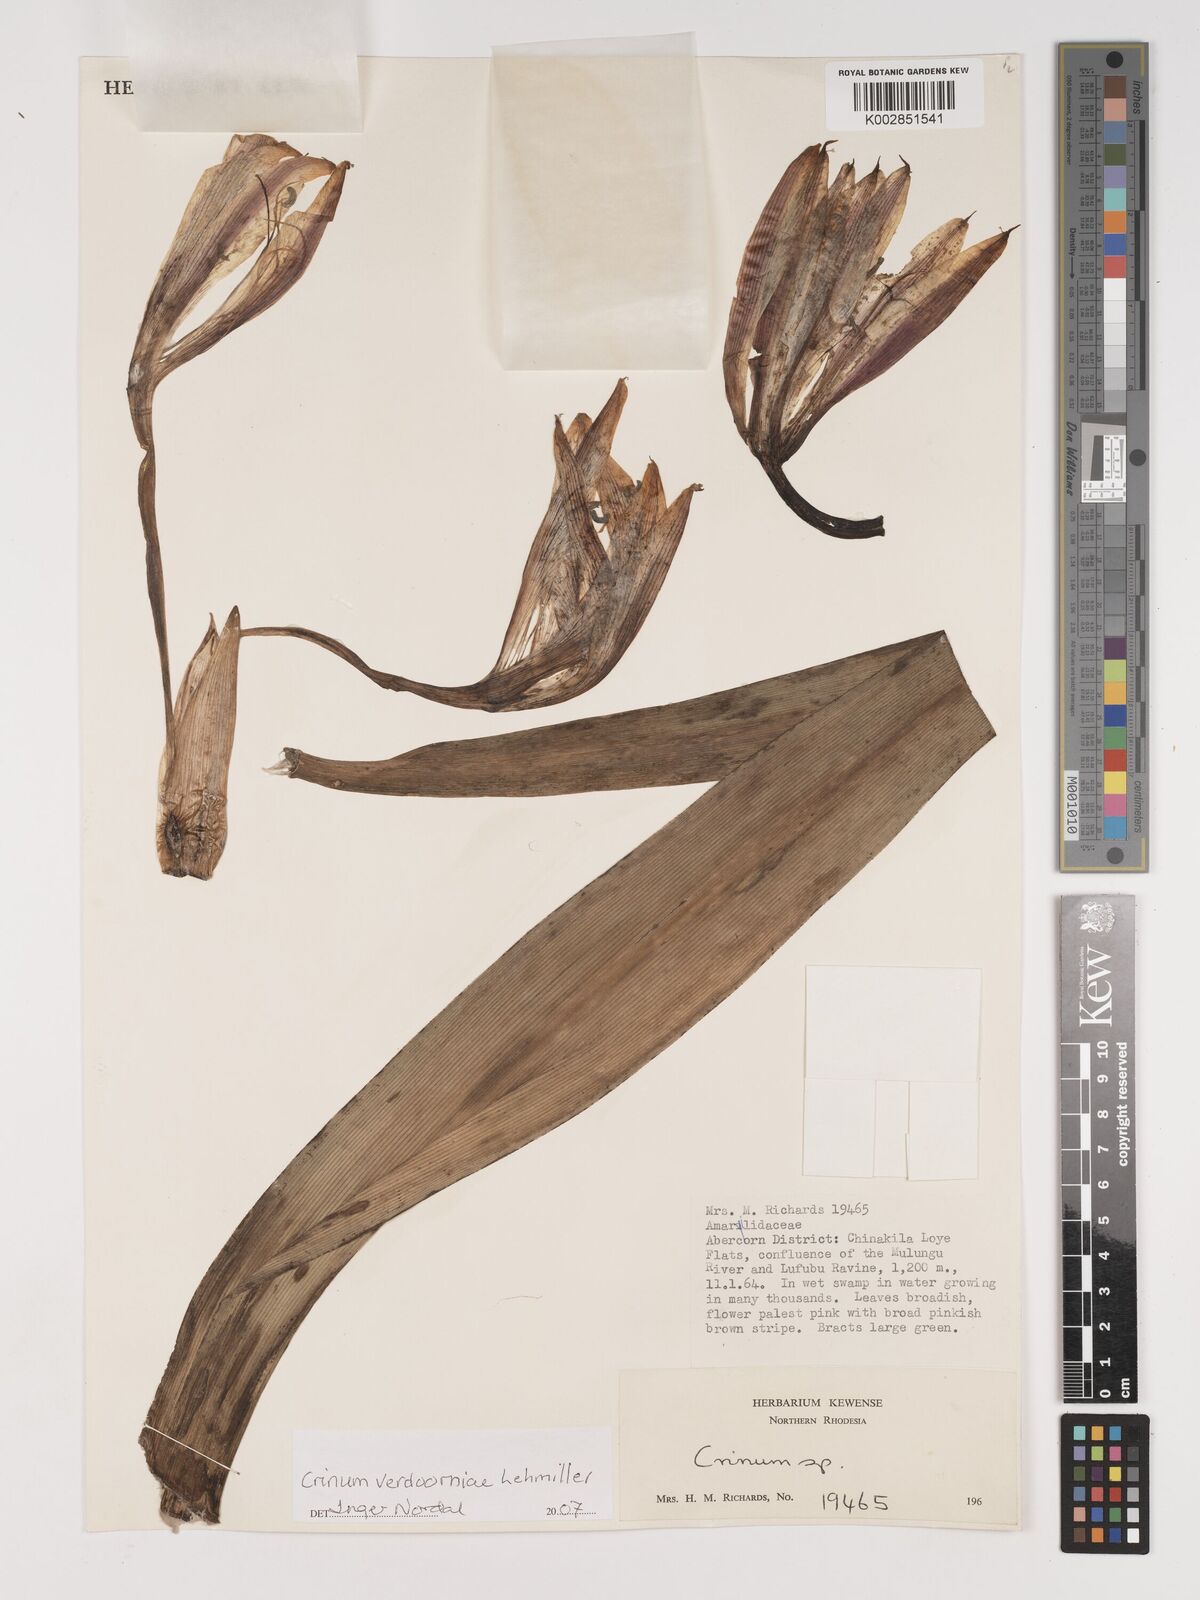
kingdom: Plantae
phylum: Tracheophyta
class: Liliopsida
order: Asparagales
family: Amaryllidaceae
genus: Crinum
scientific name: Crinum verdoorniae
